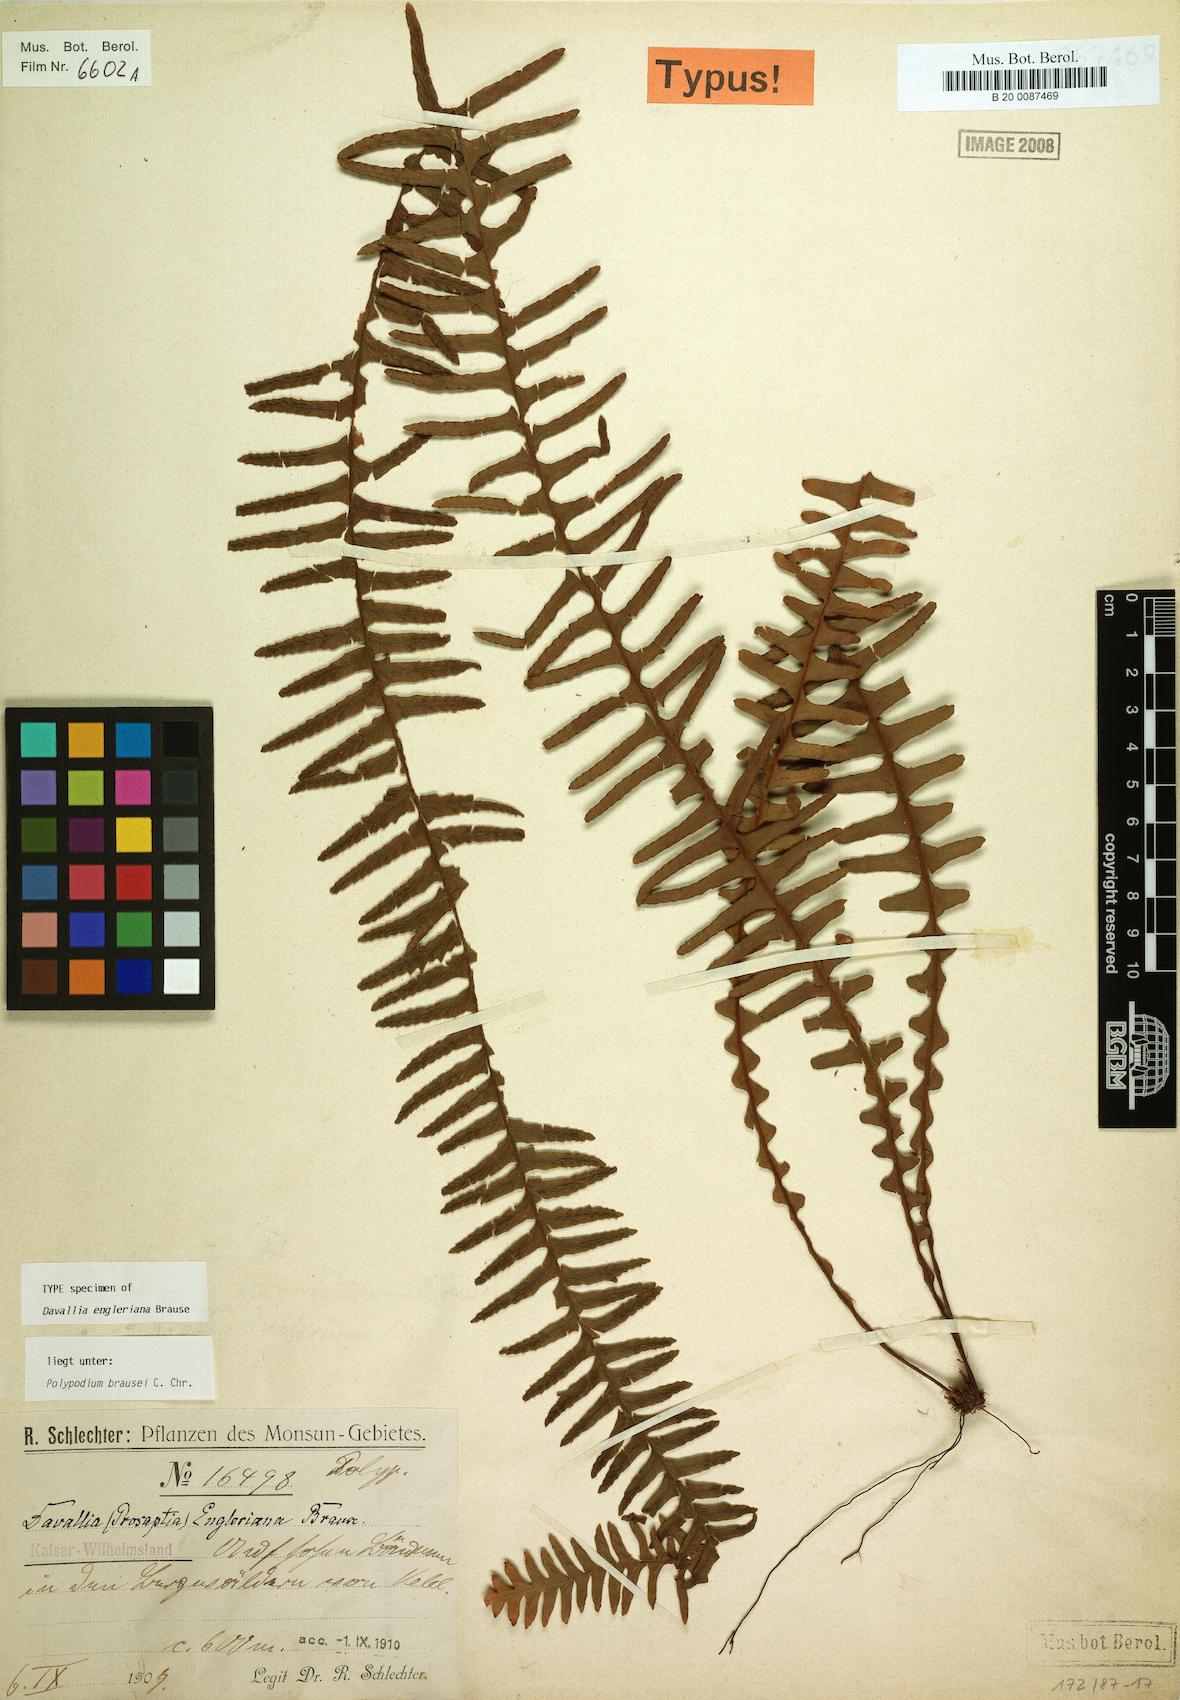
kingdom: Plantae
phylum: Tracheophyta
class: Polypodiopsida
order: Polypodiales
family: Polypodiaceae
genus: Prosaptia
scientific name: Prosaptia engleriana
